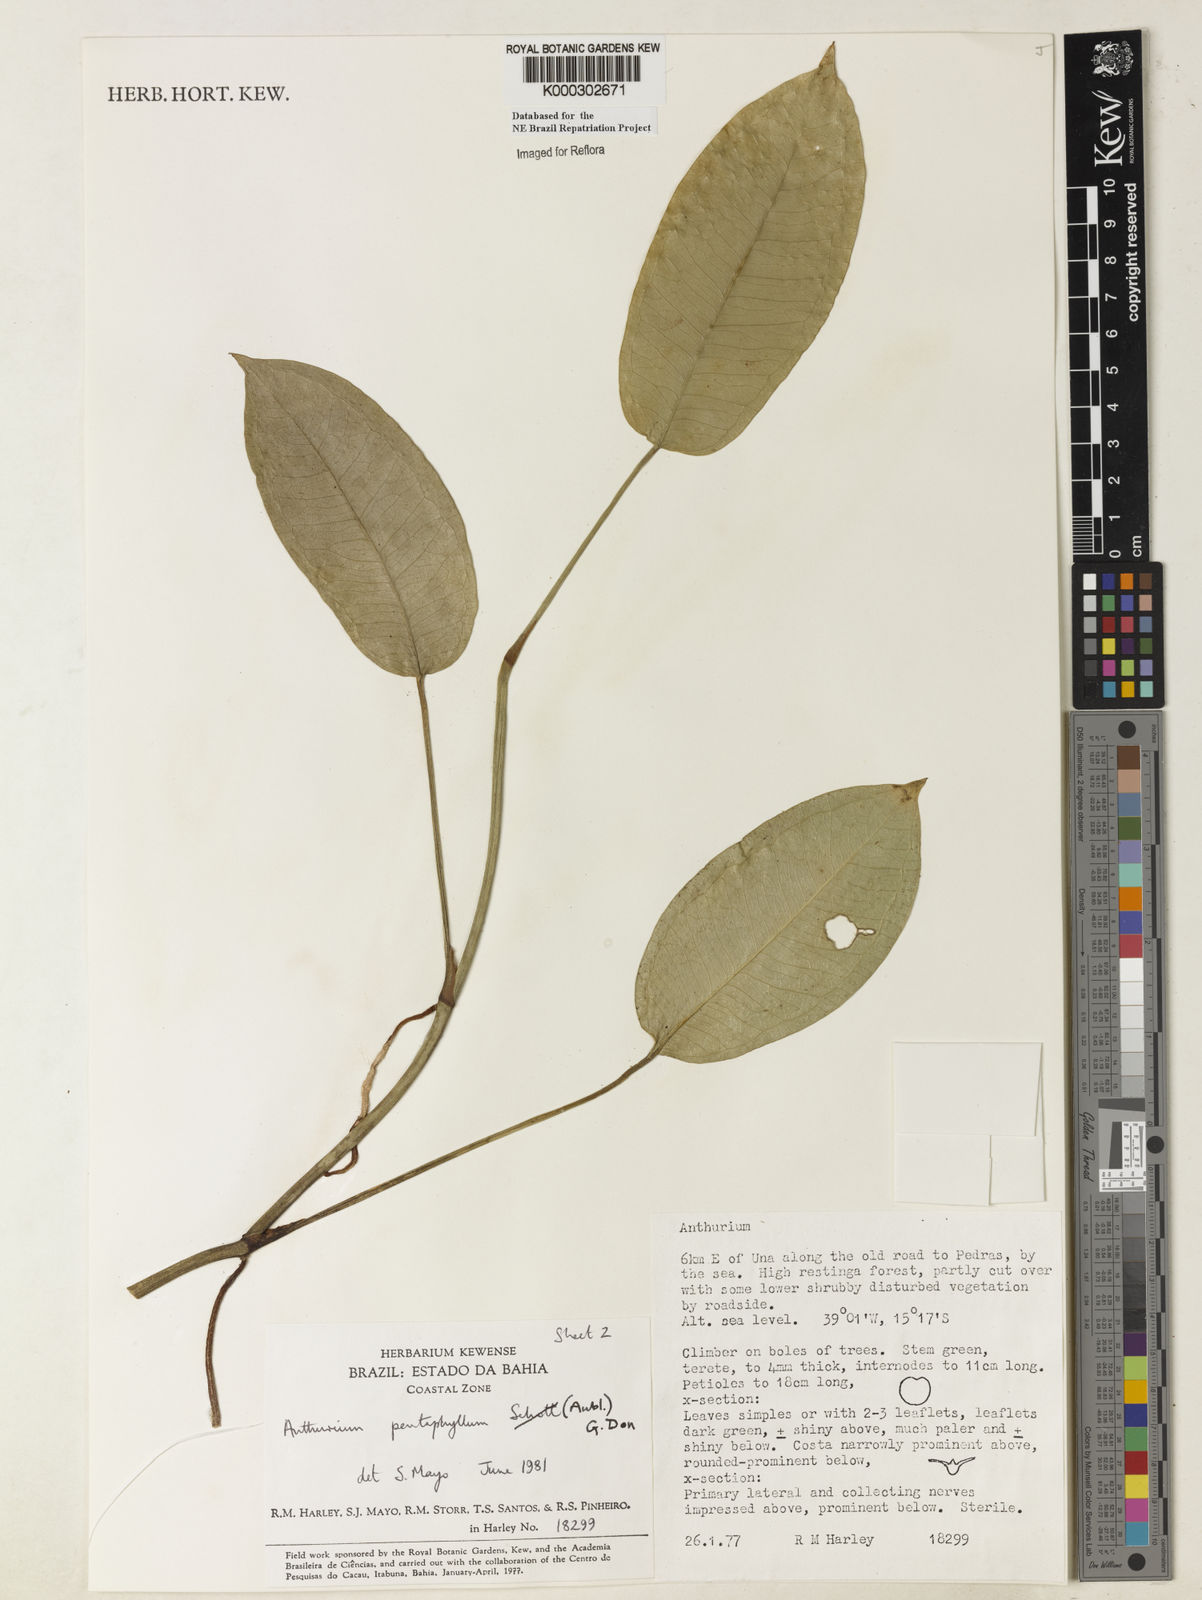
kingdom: Plantae
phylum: Tracheophyta
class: Liliopsida
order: Alismatales
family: Araceae
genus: Anthurium
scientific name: Anthurium pentaphyllum
